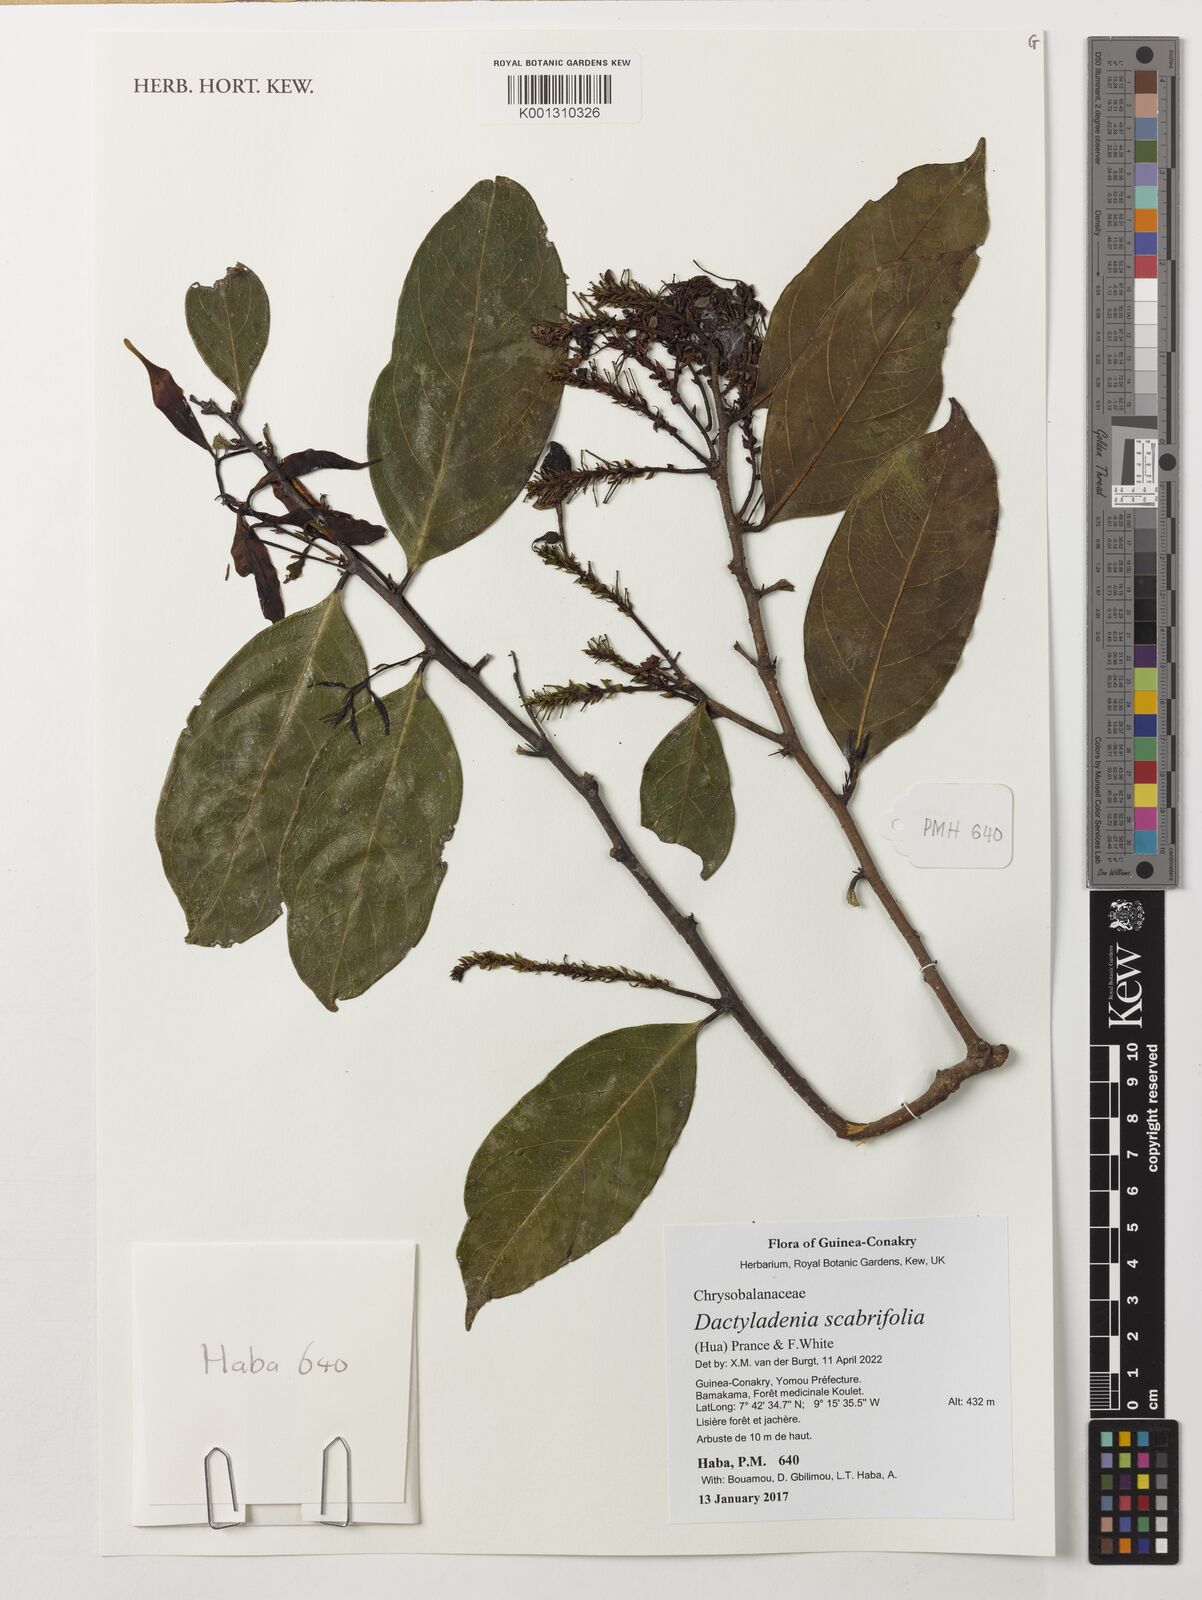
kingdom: Plantae
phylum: Tracheophyta
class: Magnoliopsida
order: Malpighiales
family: Chrysobalanaceae
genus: Dactyladenia
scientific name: Dactyladenia scabrifolia
